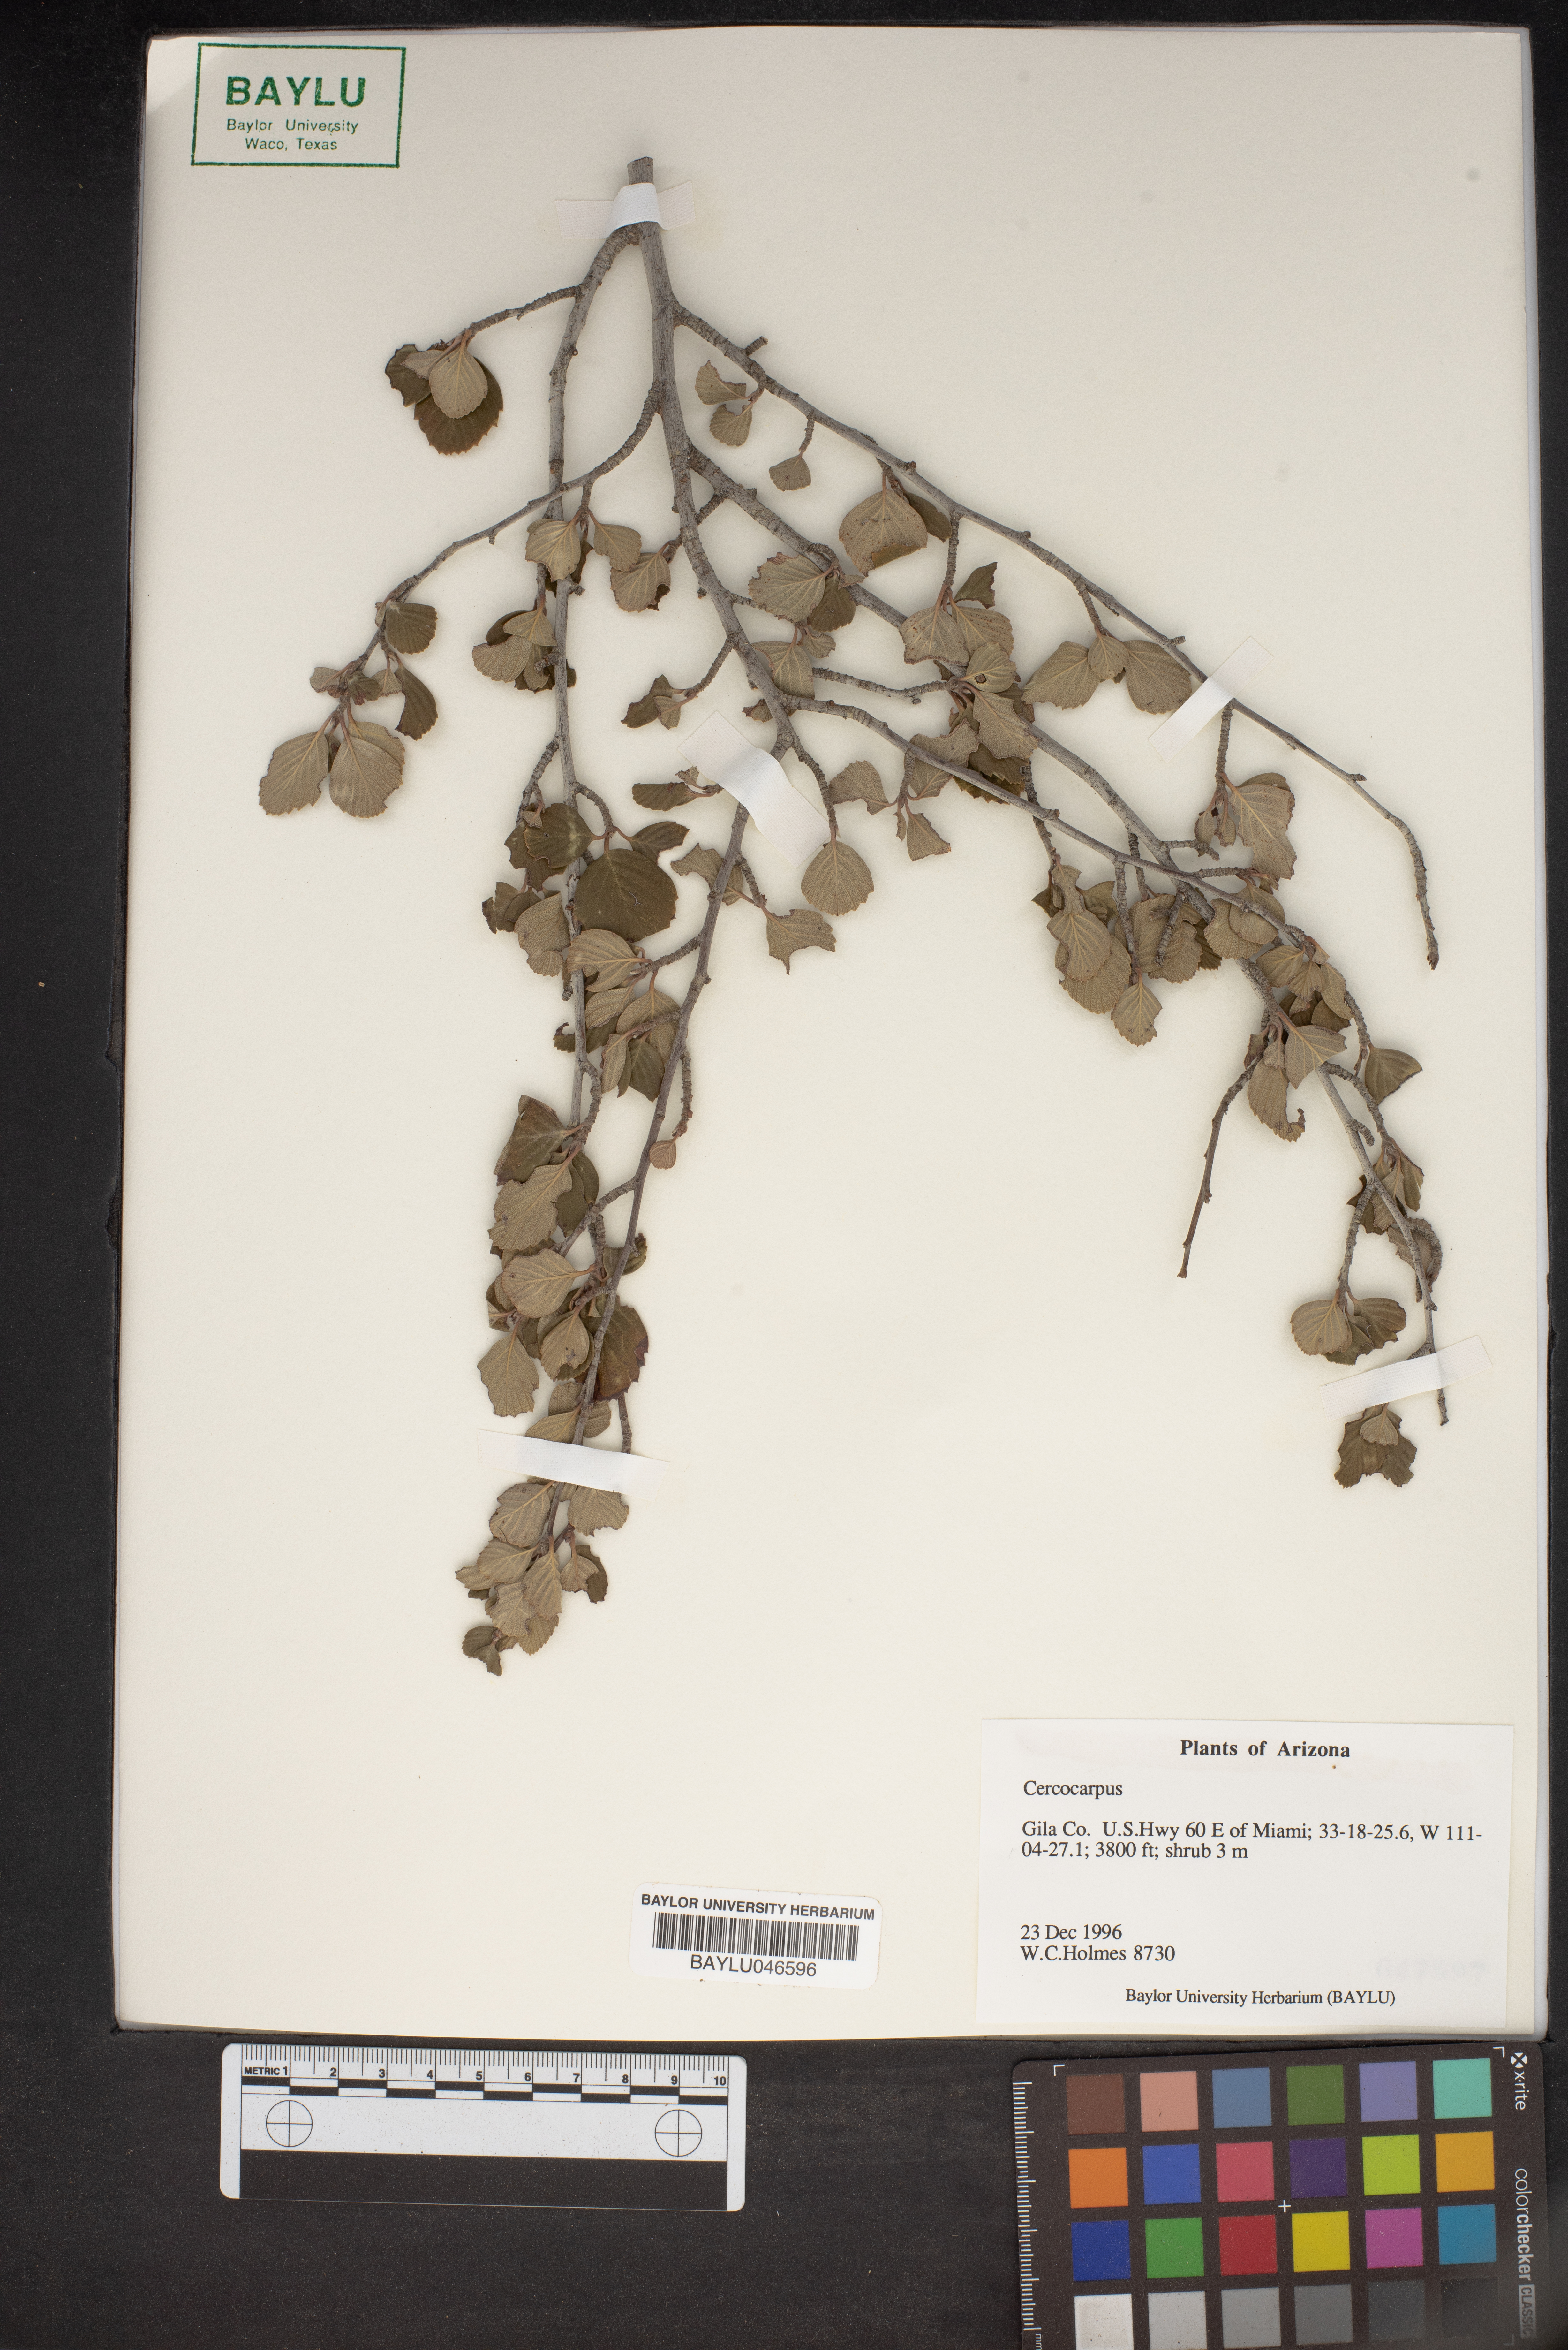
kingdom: Plantae
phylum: Tracheophyta
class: Magnoliopsida
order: Rosales
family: Rosaceae
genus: Cercocarpus
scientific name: Cercocarpus
